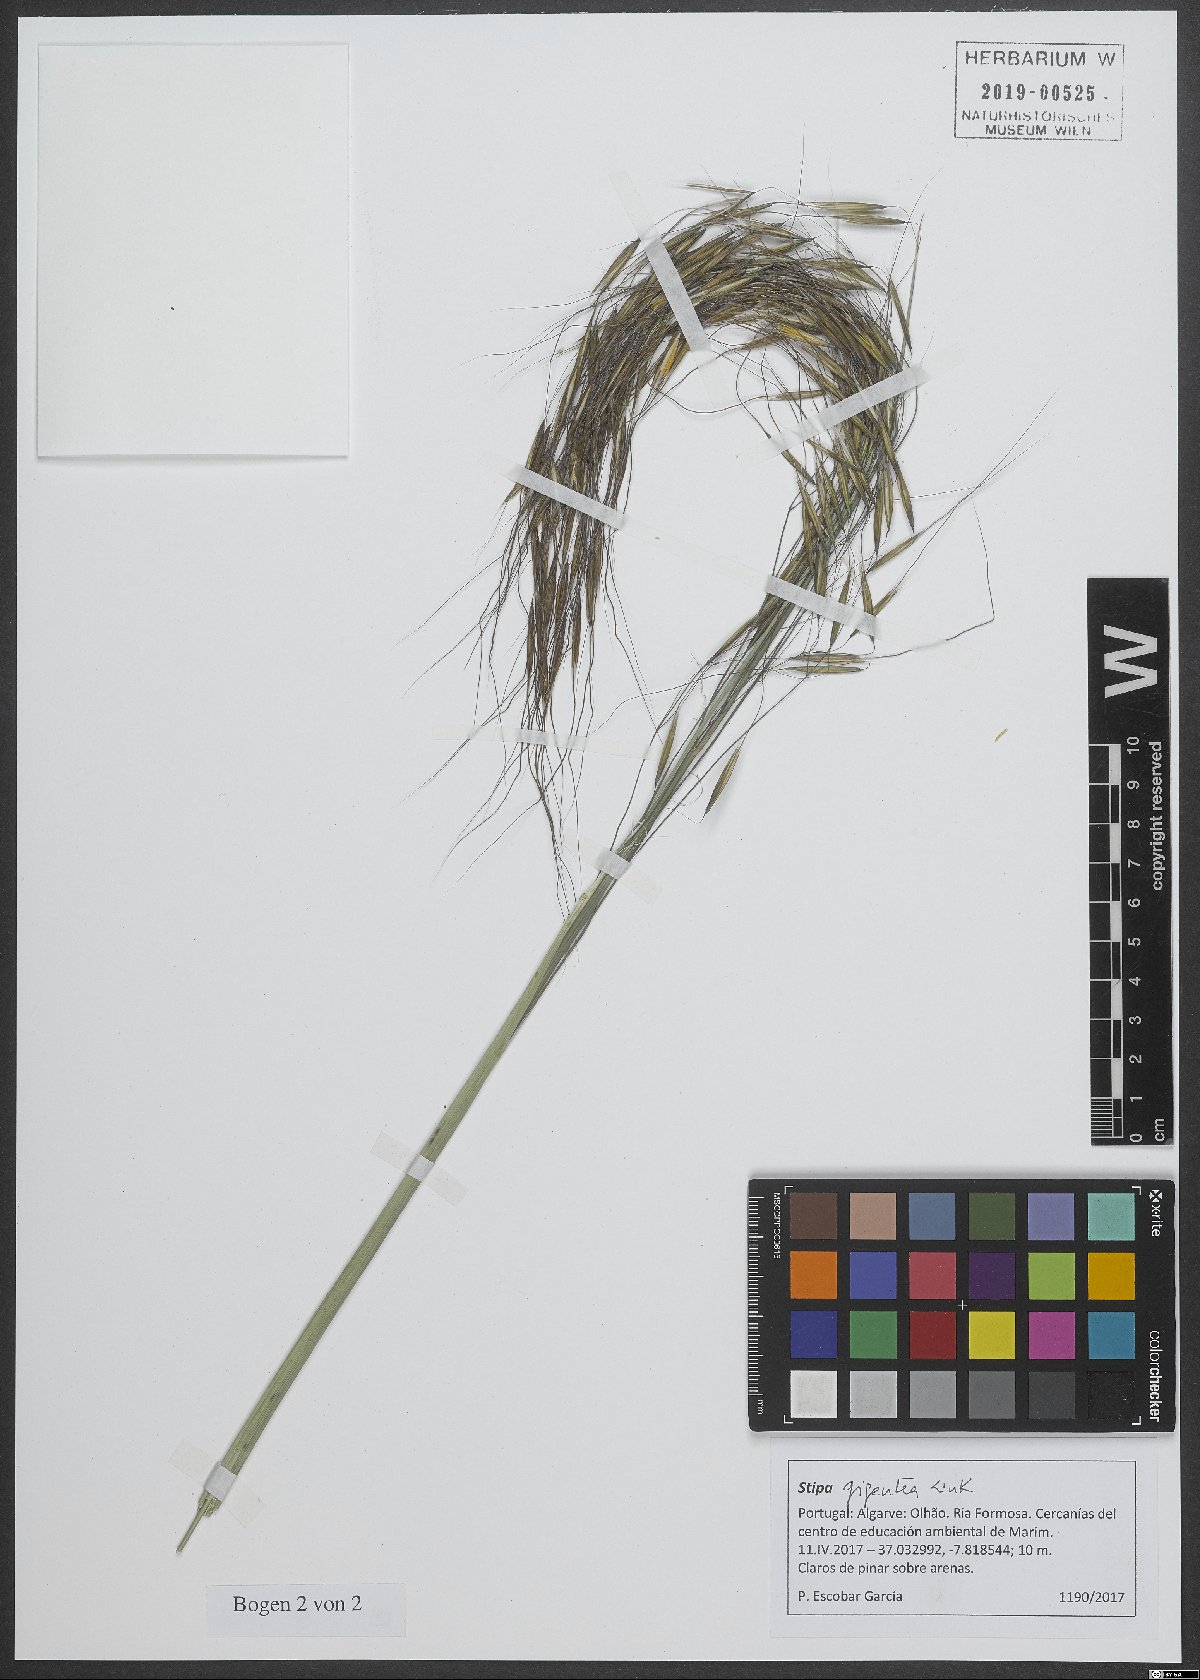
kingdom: Plantae
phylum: Tracheophyta
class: Liliopsida
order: Poales
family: Poaceae
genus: Celtica
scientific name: Celtica gigantea
